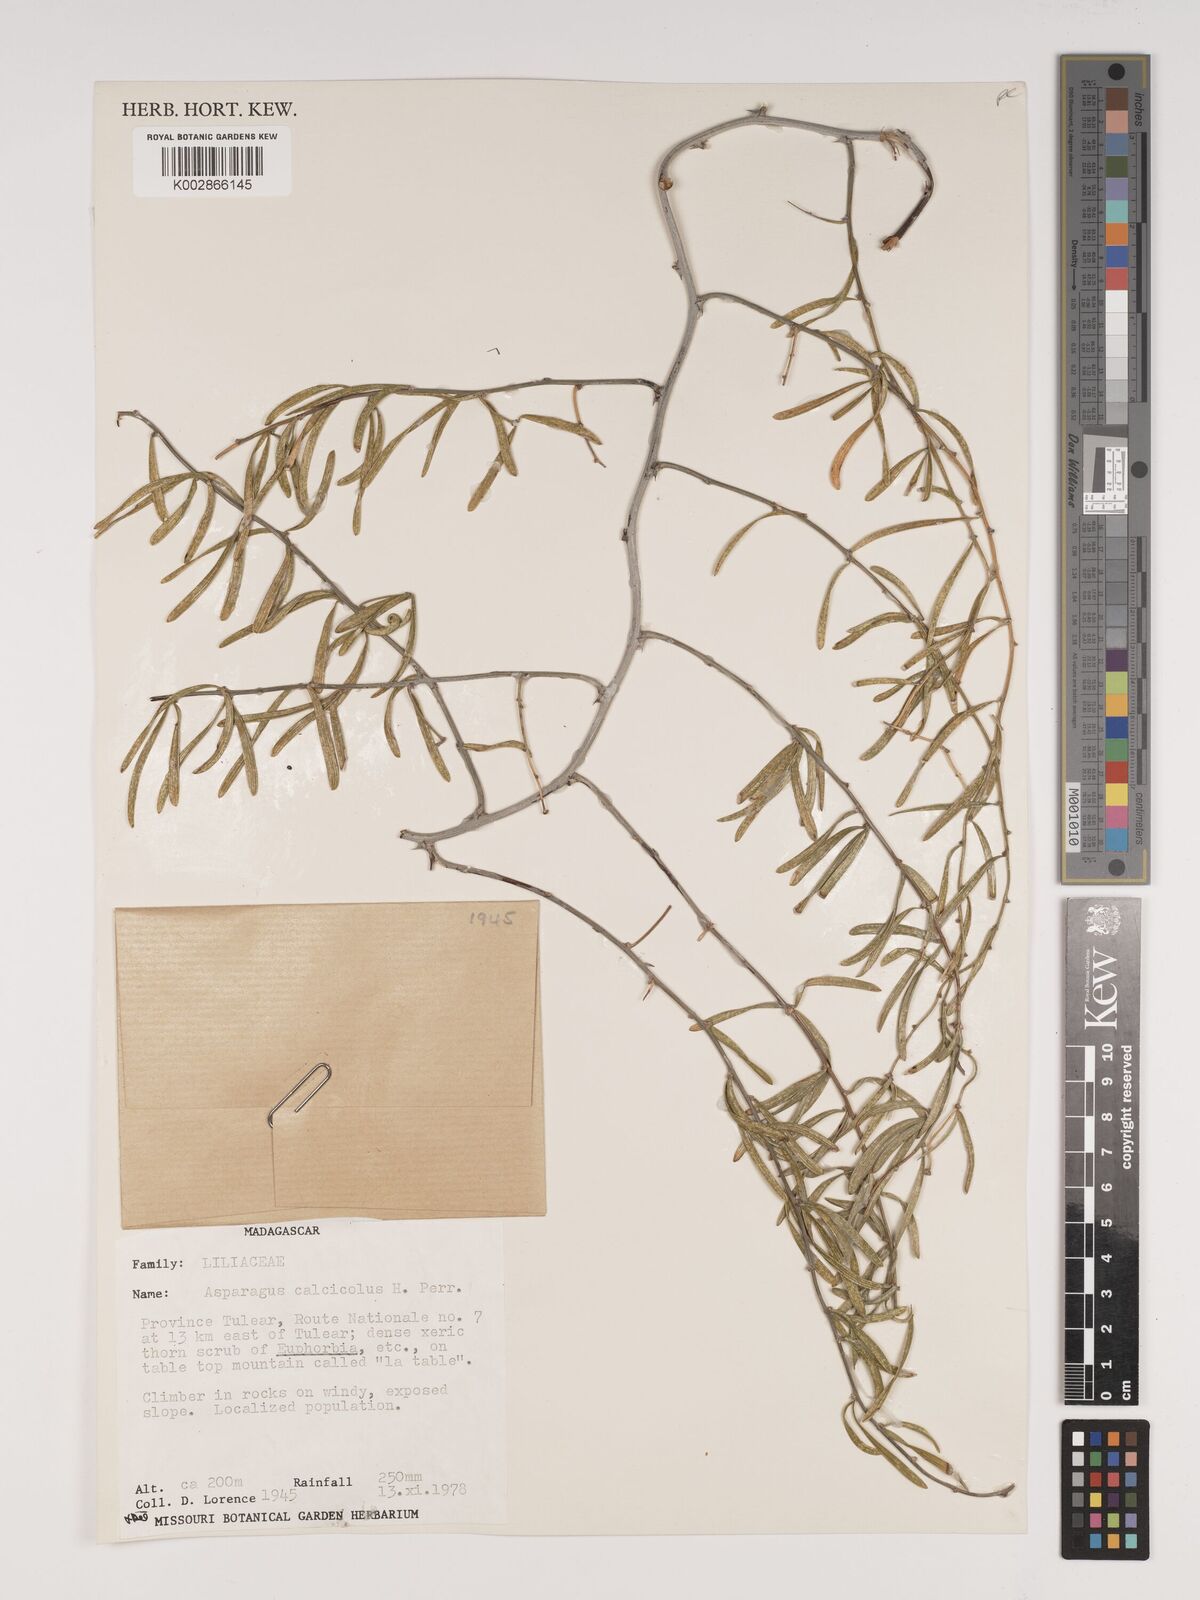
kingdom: Plantae
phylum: Tracheophyta
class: Liliopsida
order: Asparagales
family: Asparagaceae
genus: Asparagus
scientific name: Asparagus calcicola
